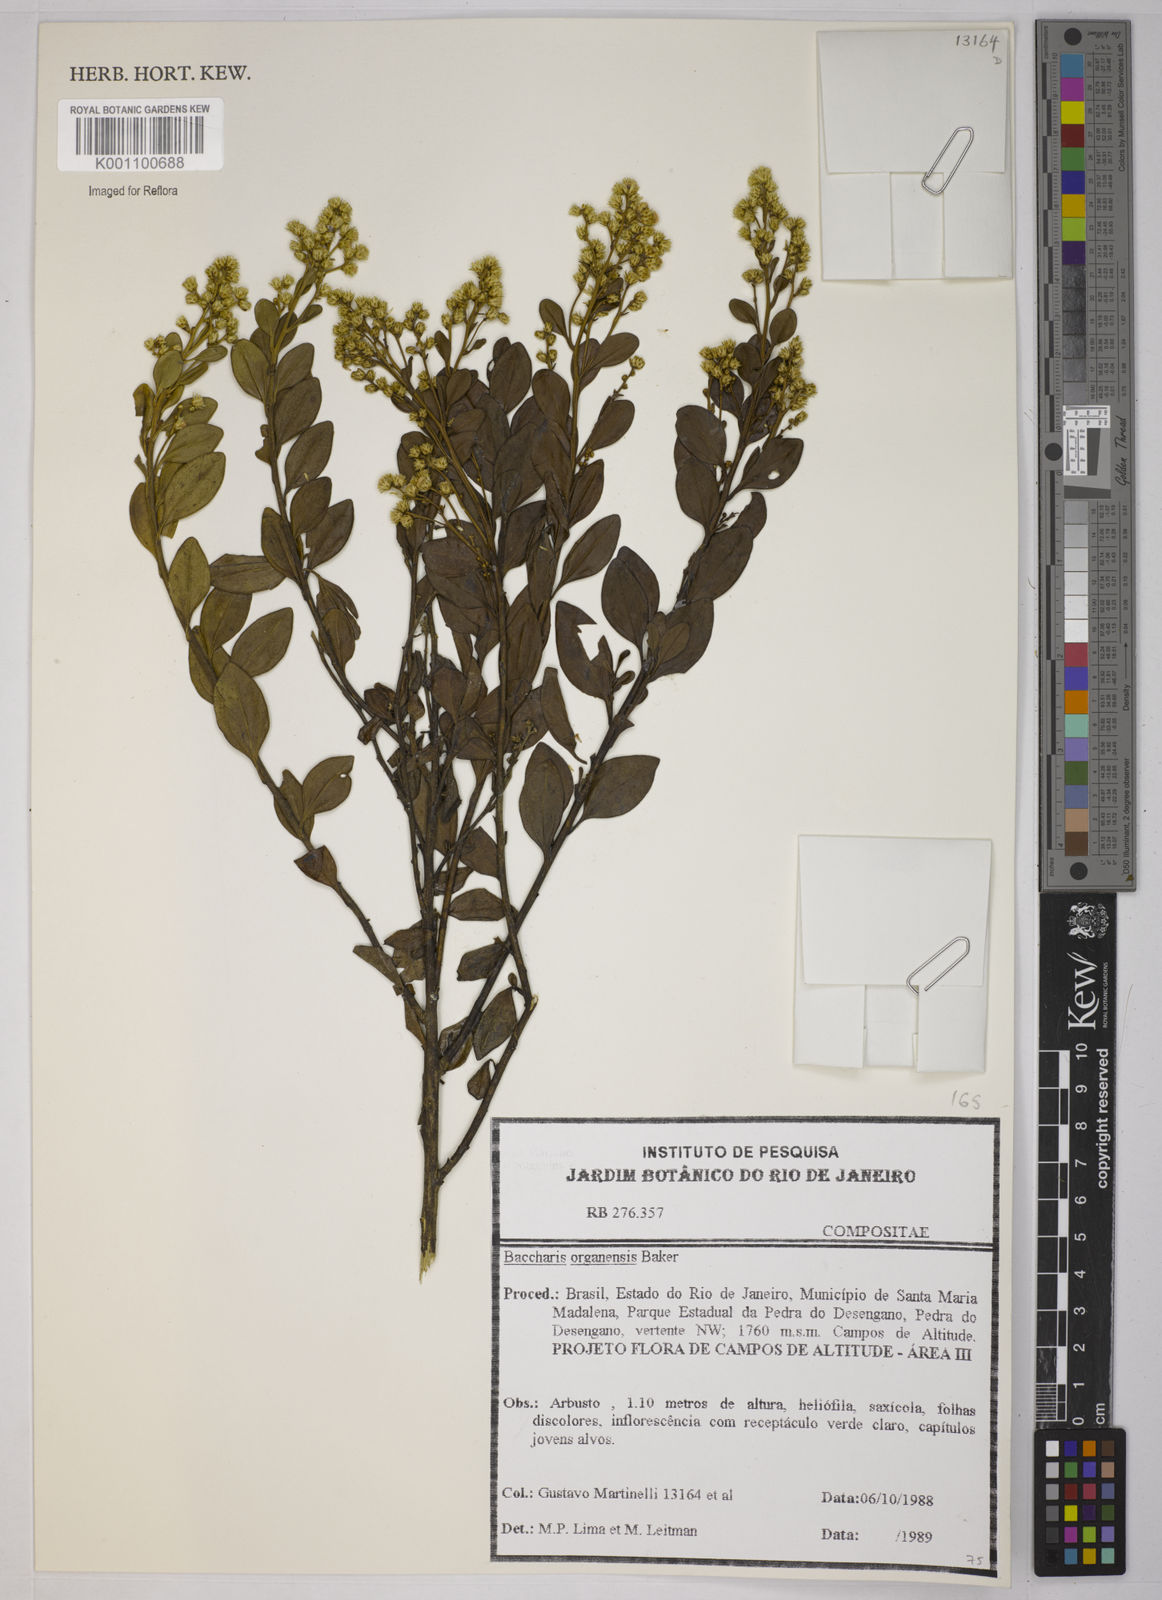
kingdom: Plantae
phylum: Tracheophyta
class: Magnoliopsida
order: Asterales
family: Asteraceae
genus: Baccharis
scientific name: Baccharis organensis
